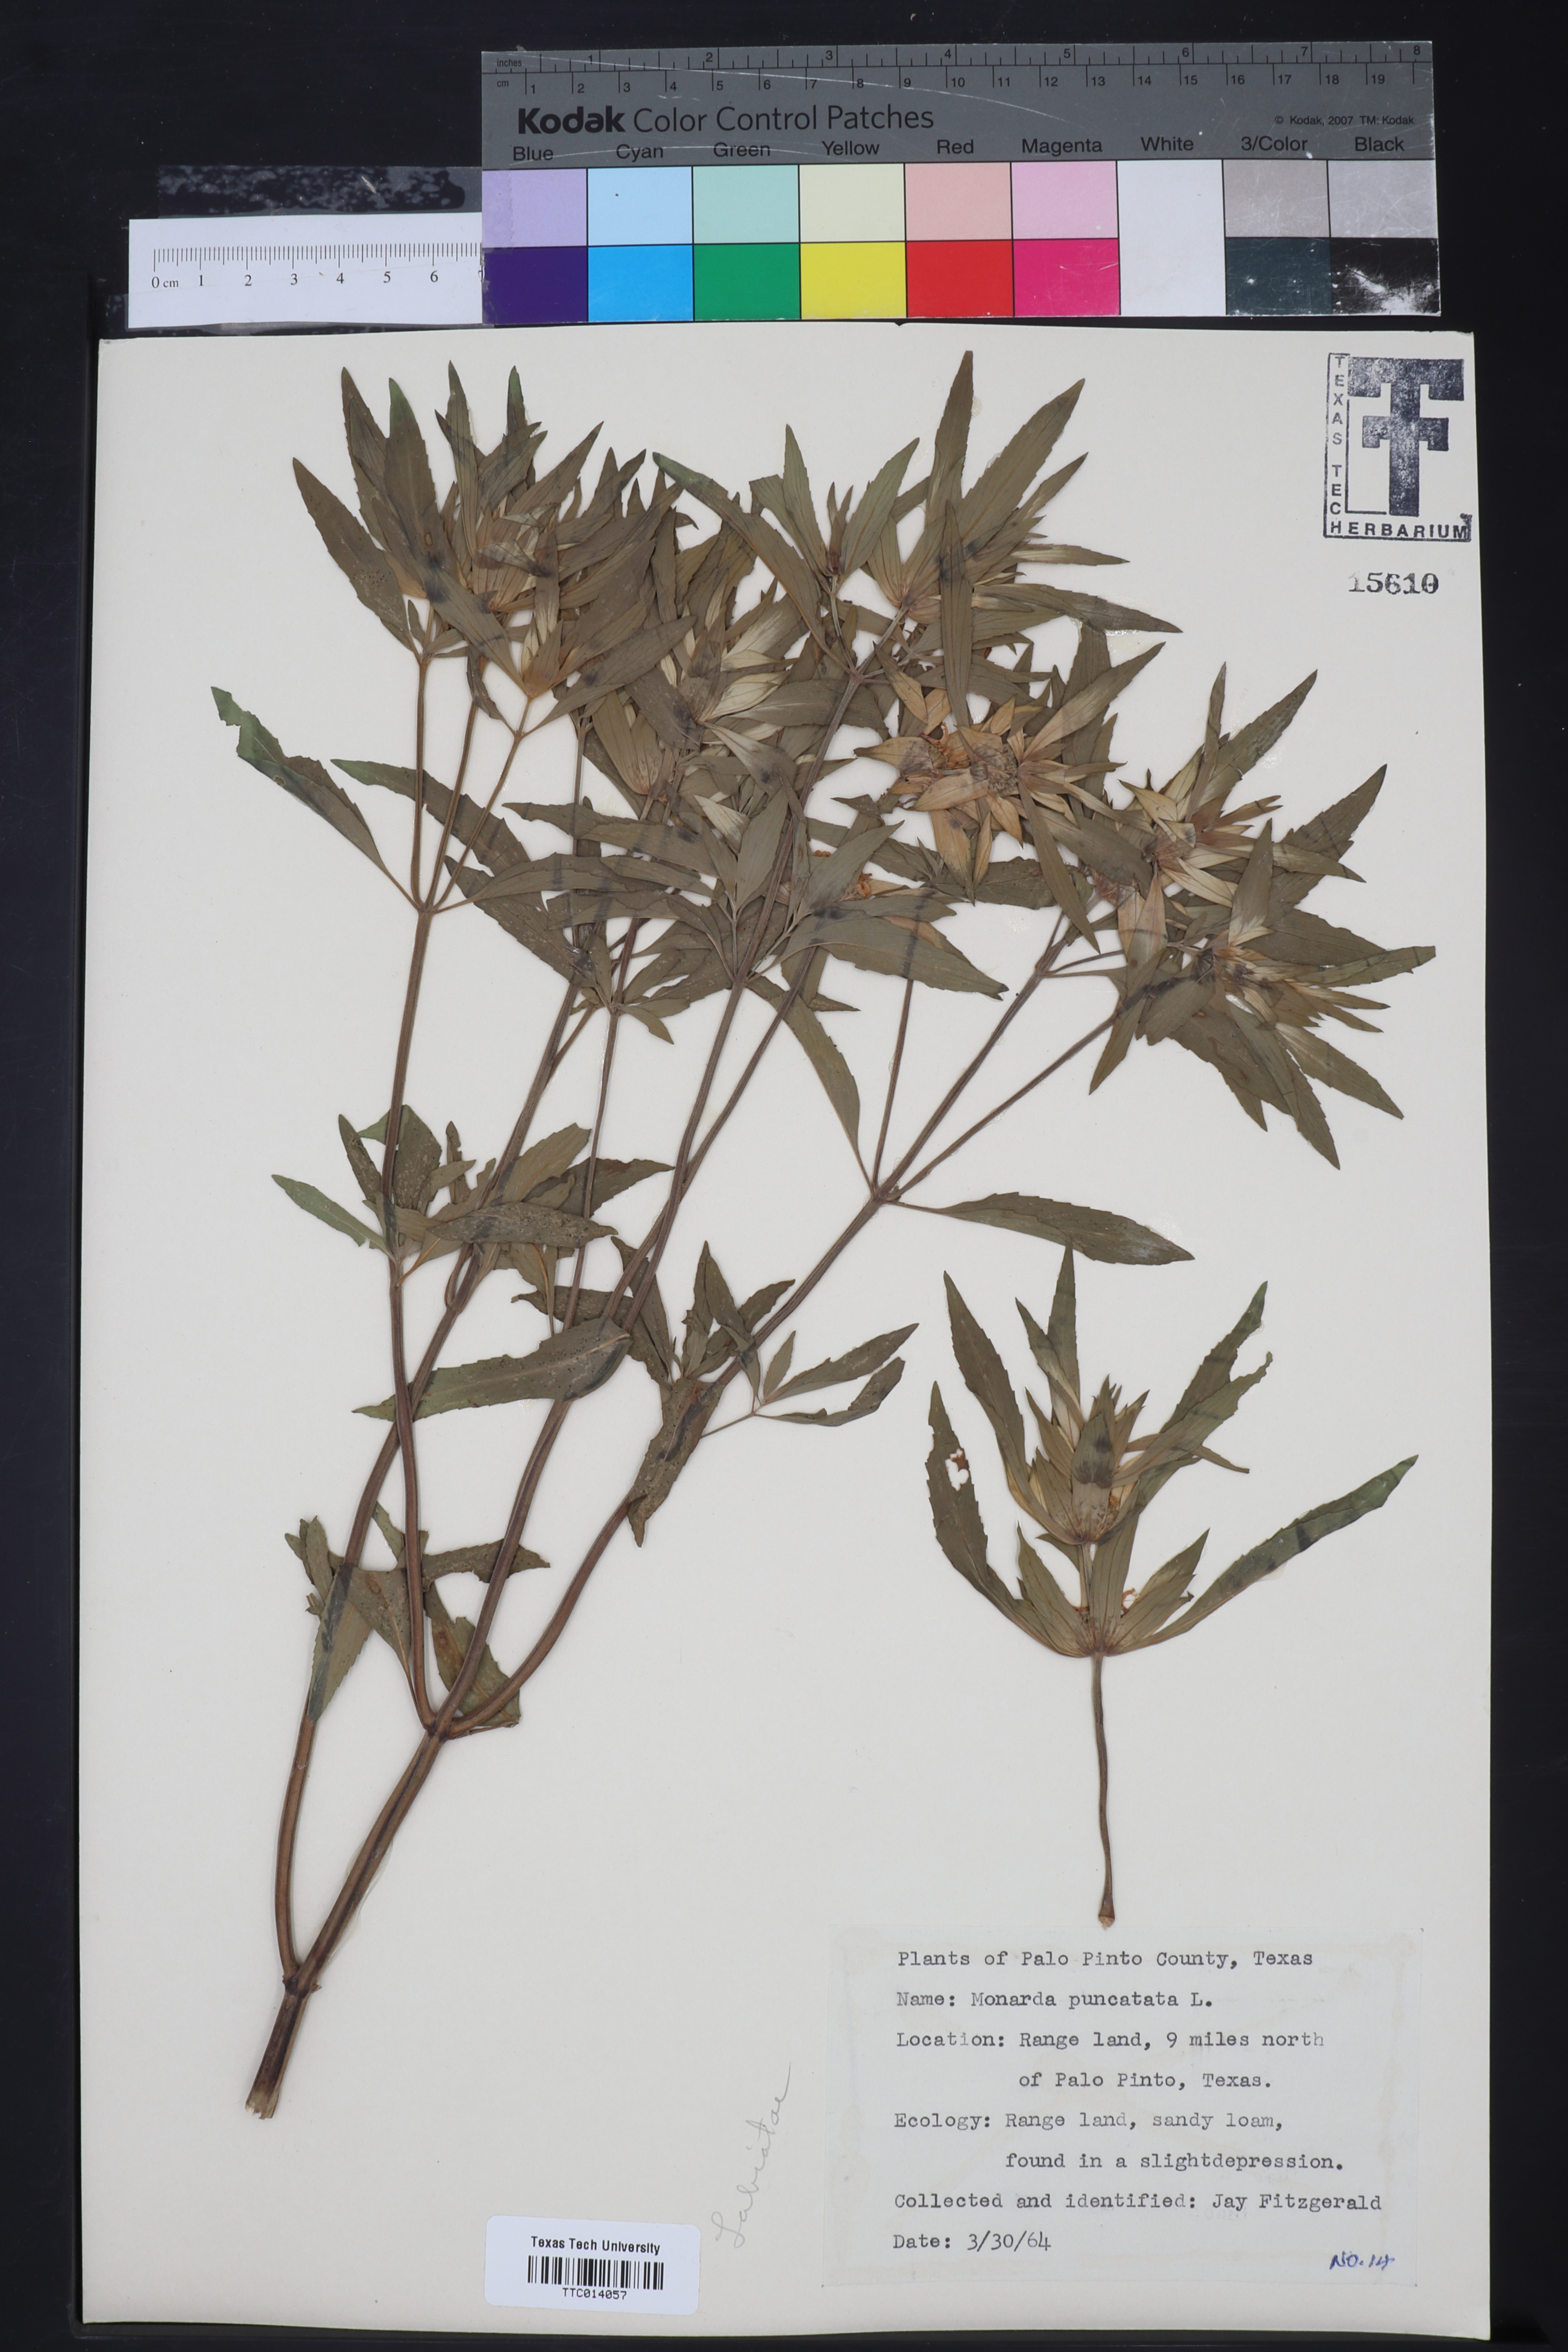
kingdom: Plantae
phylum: Tracheophyta
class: Magnoliopsida
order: Lamiales
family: Lamiaceae
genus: Monarda
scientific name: Monarda punctata
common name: Dotted monarda
